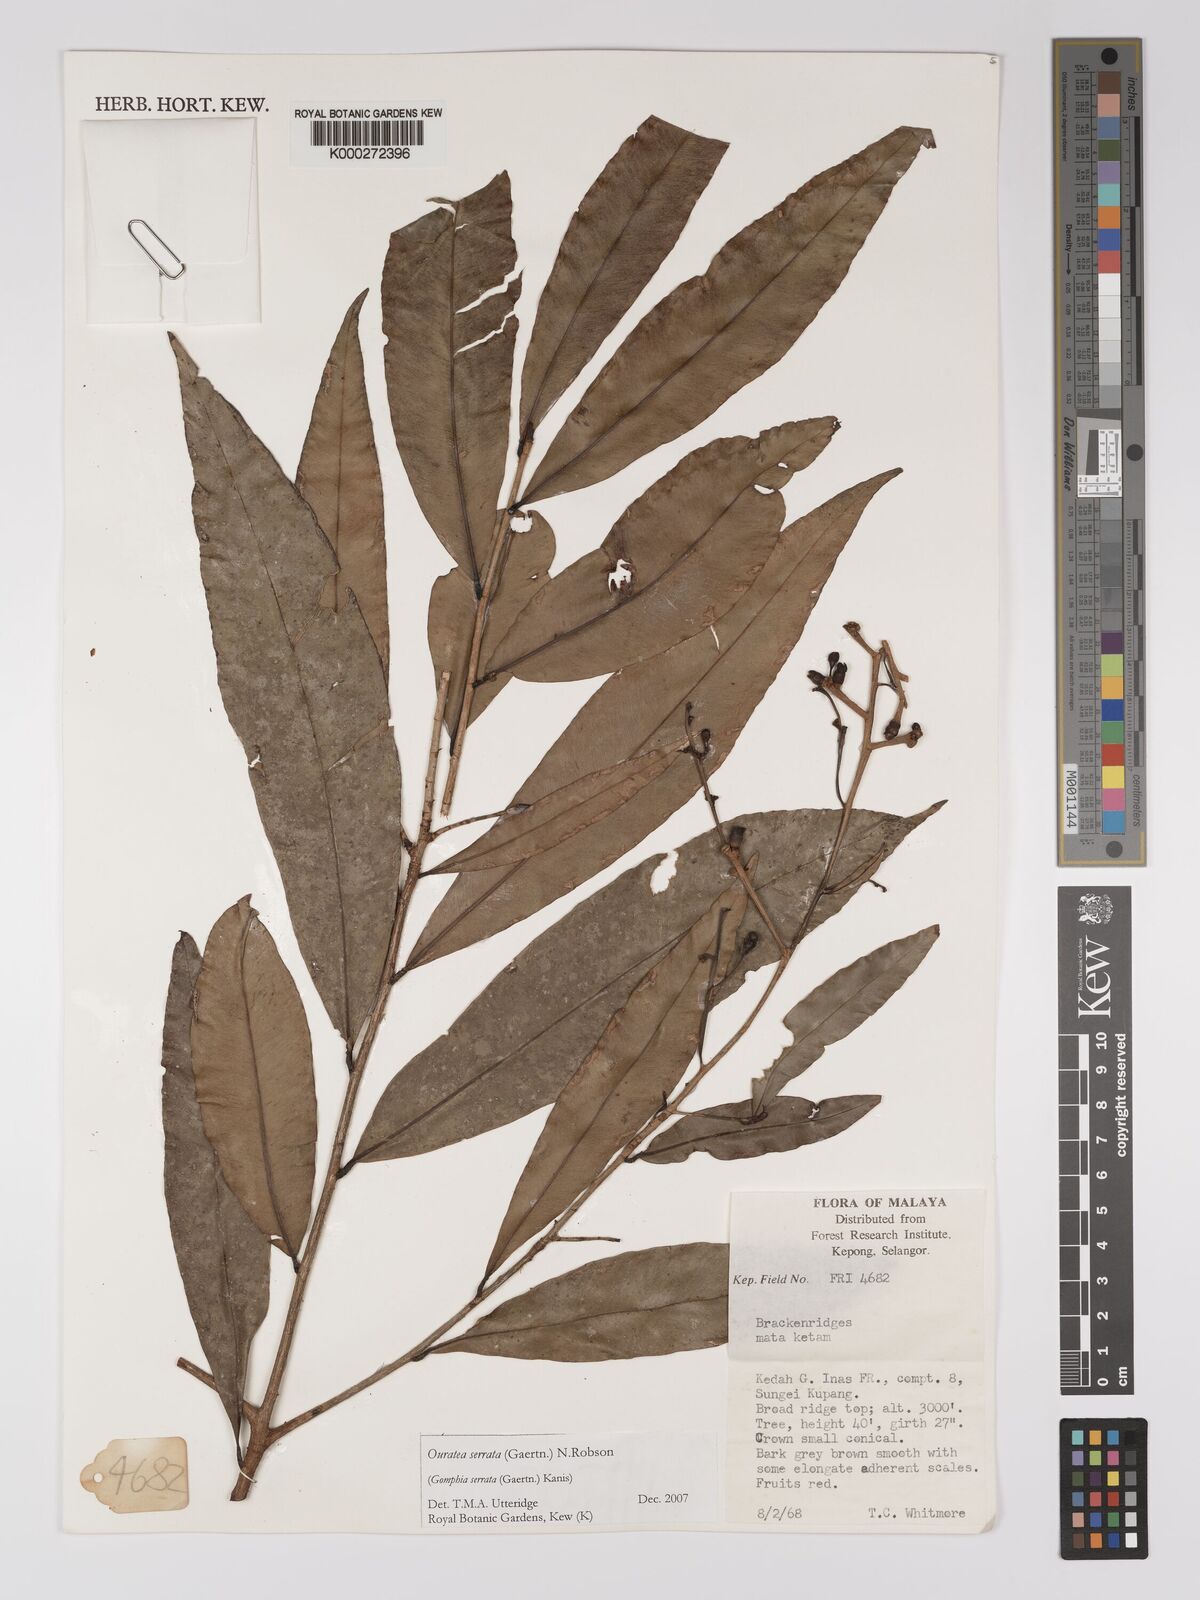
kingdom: Plantae
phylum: Tracheophyta
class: Magnoliopsida
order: Malpighiales
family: Ochnaceae
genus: Gomphia
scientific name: Gomphia serrata
